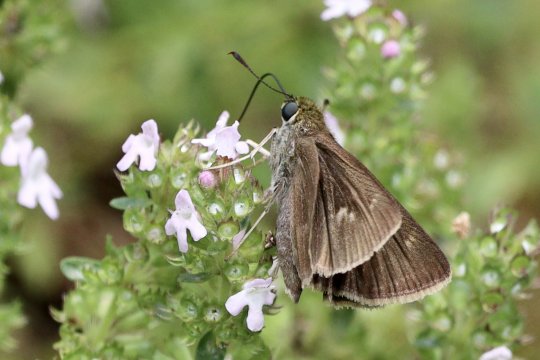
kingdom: Animalia
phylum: Arthropoda
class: Insecta
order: Lepidoptera
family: Hesperiidae
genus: Euphyes
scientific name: Euphyes vestris
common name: Dun Skipper
